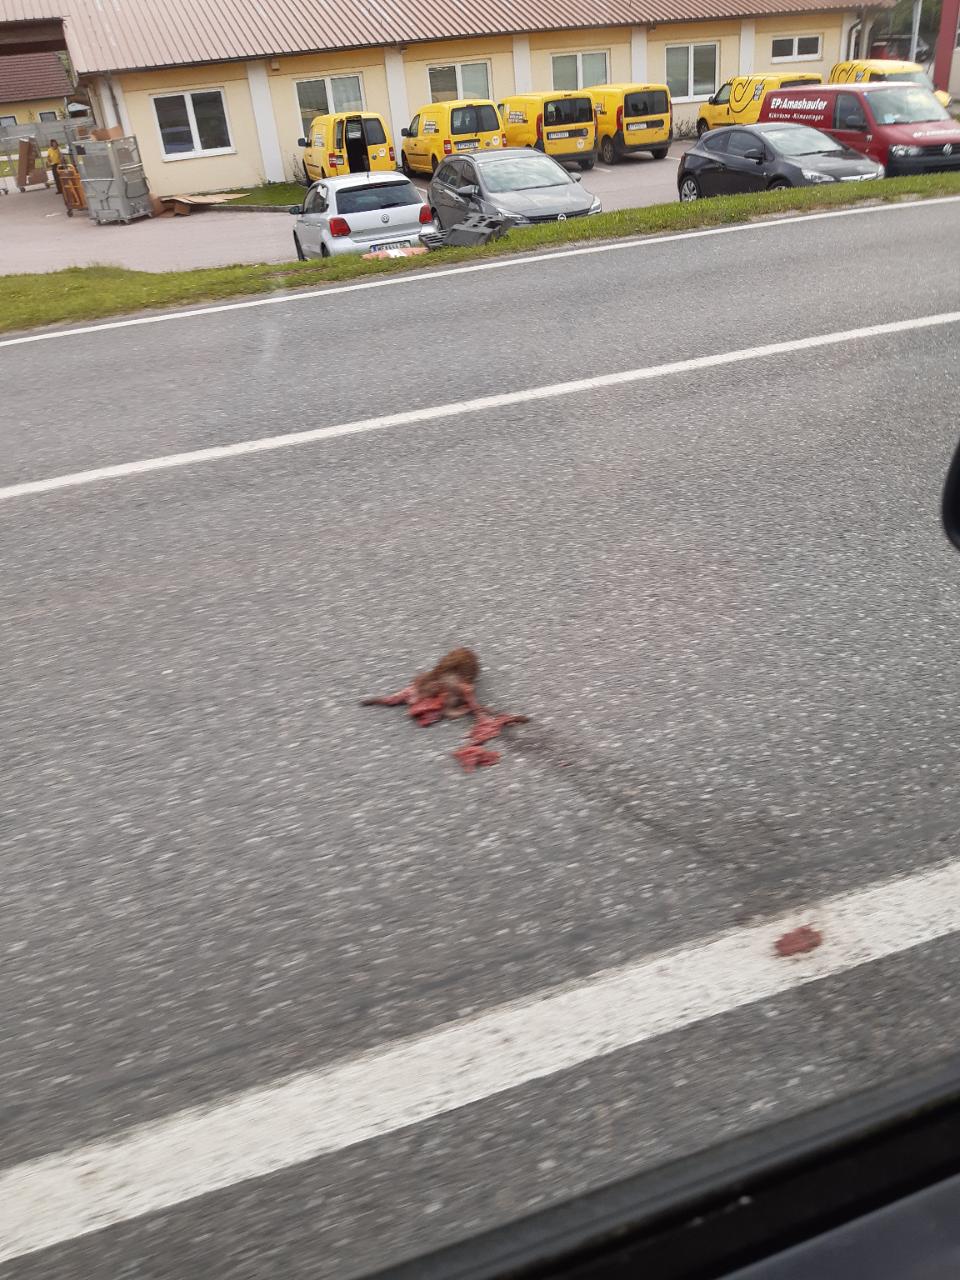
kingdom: Animalia
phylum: Chordata
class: Mammalia
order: Erinaceomorpha
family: Erinaceidae
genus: Erinaceus
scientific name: Erinaceus
